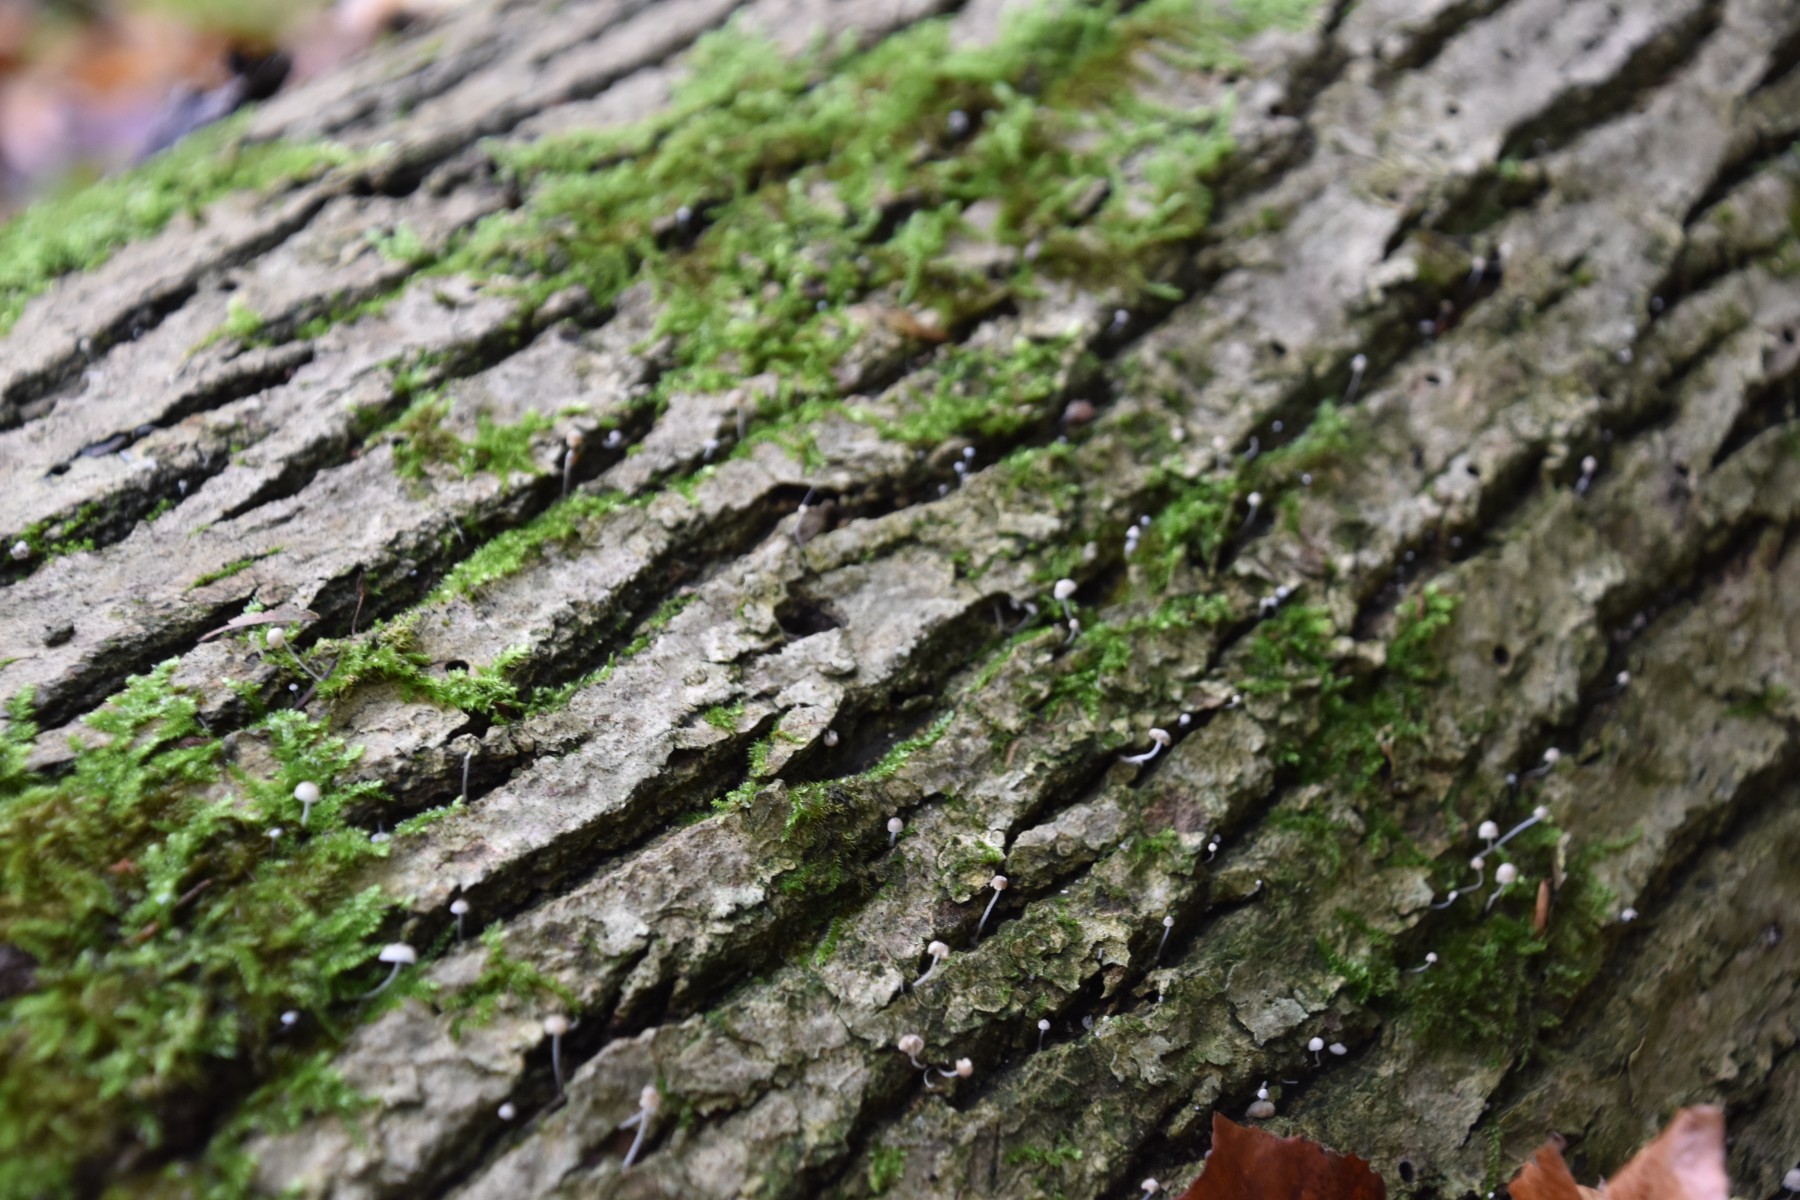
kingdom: Fungi
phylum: Basidiomycota
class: Agaricomycetes
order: Agaricales
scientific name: Agaricales
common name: champignonordenen
